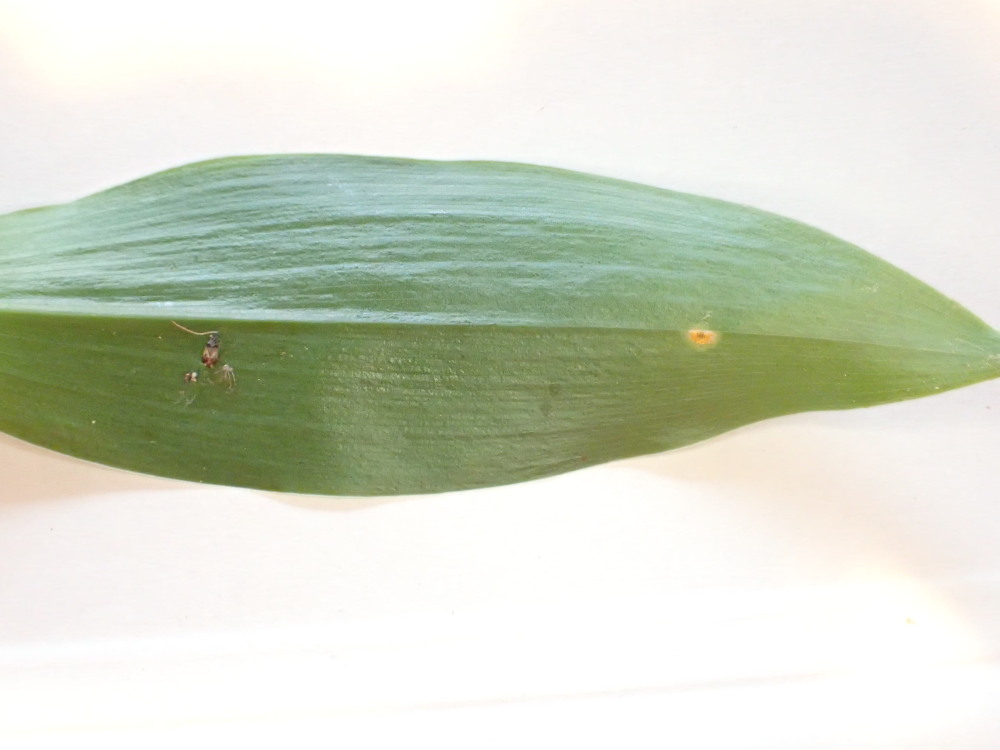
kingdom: Fungi
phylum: Basidiomycota
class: Pucciniomycetes
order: Pucciniales
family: Pucciniaceae
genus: Puccinia
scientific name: Puccinia sessilis
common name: Arum rust
